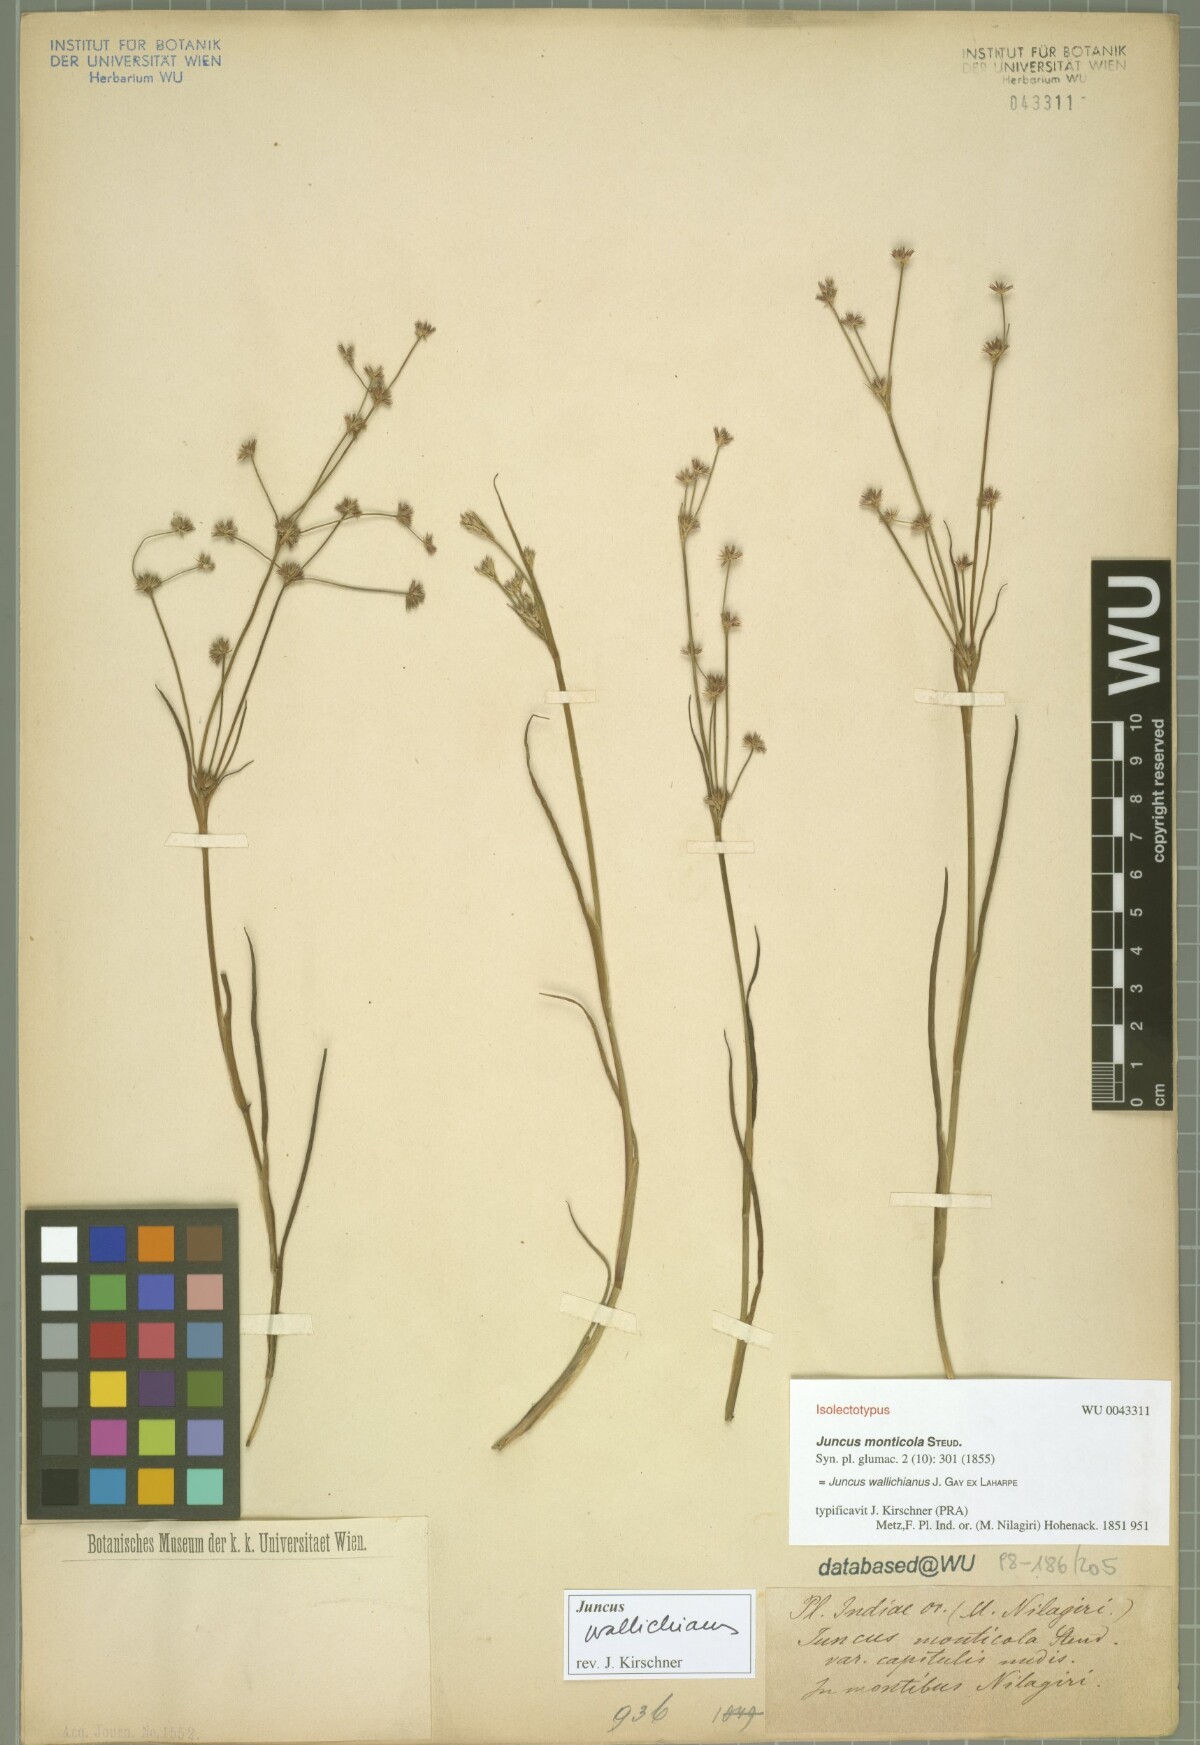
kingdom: Plantae
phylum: Tracheophyta
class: Liliopsida
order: Poales
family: Juncaceae
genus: Juncus
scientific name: Juncus wallichianus
